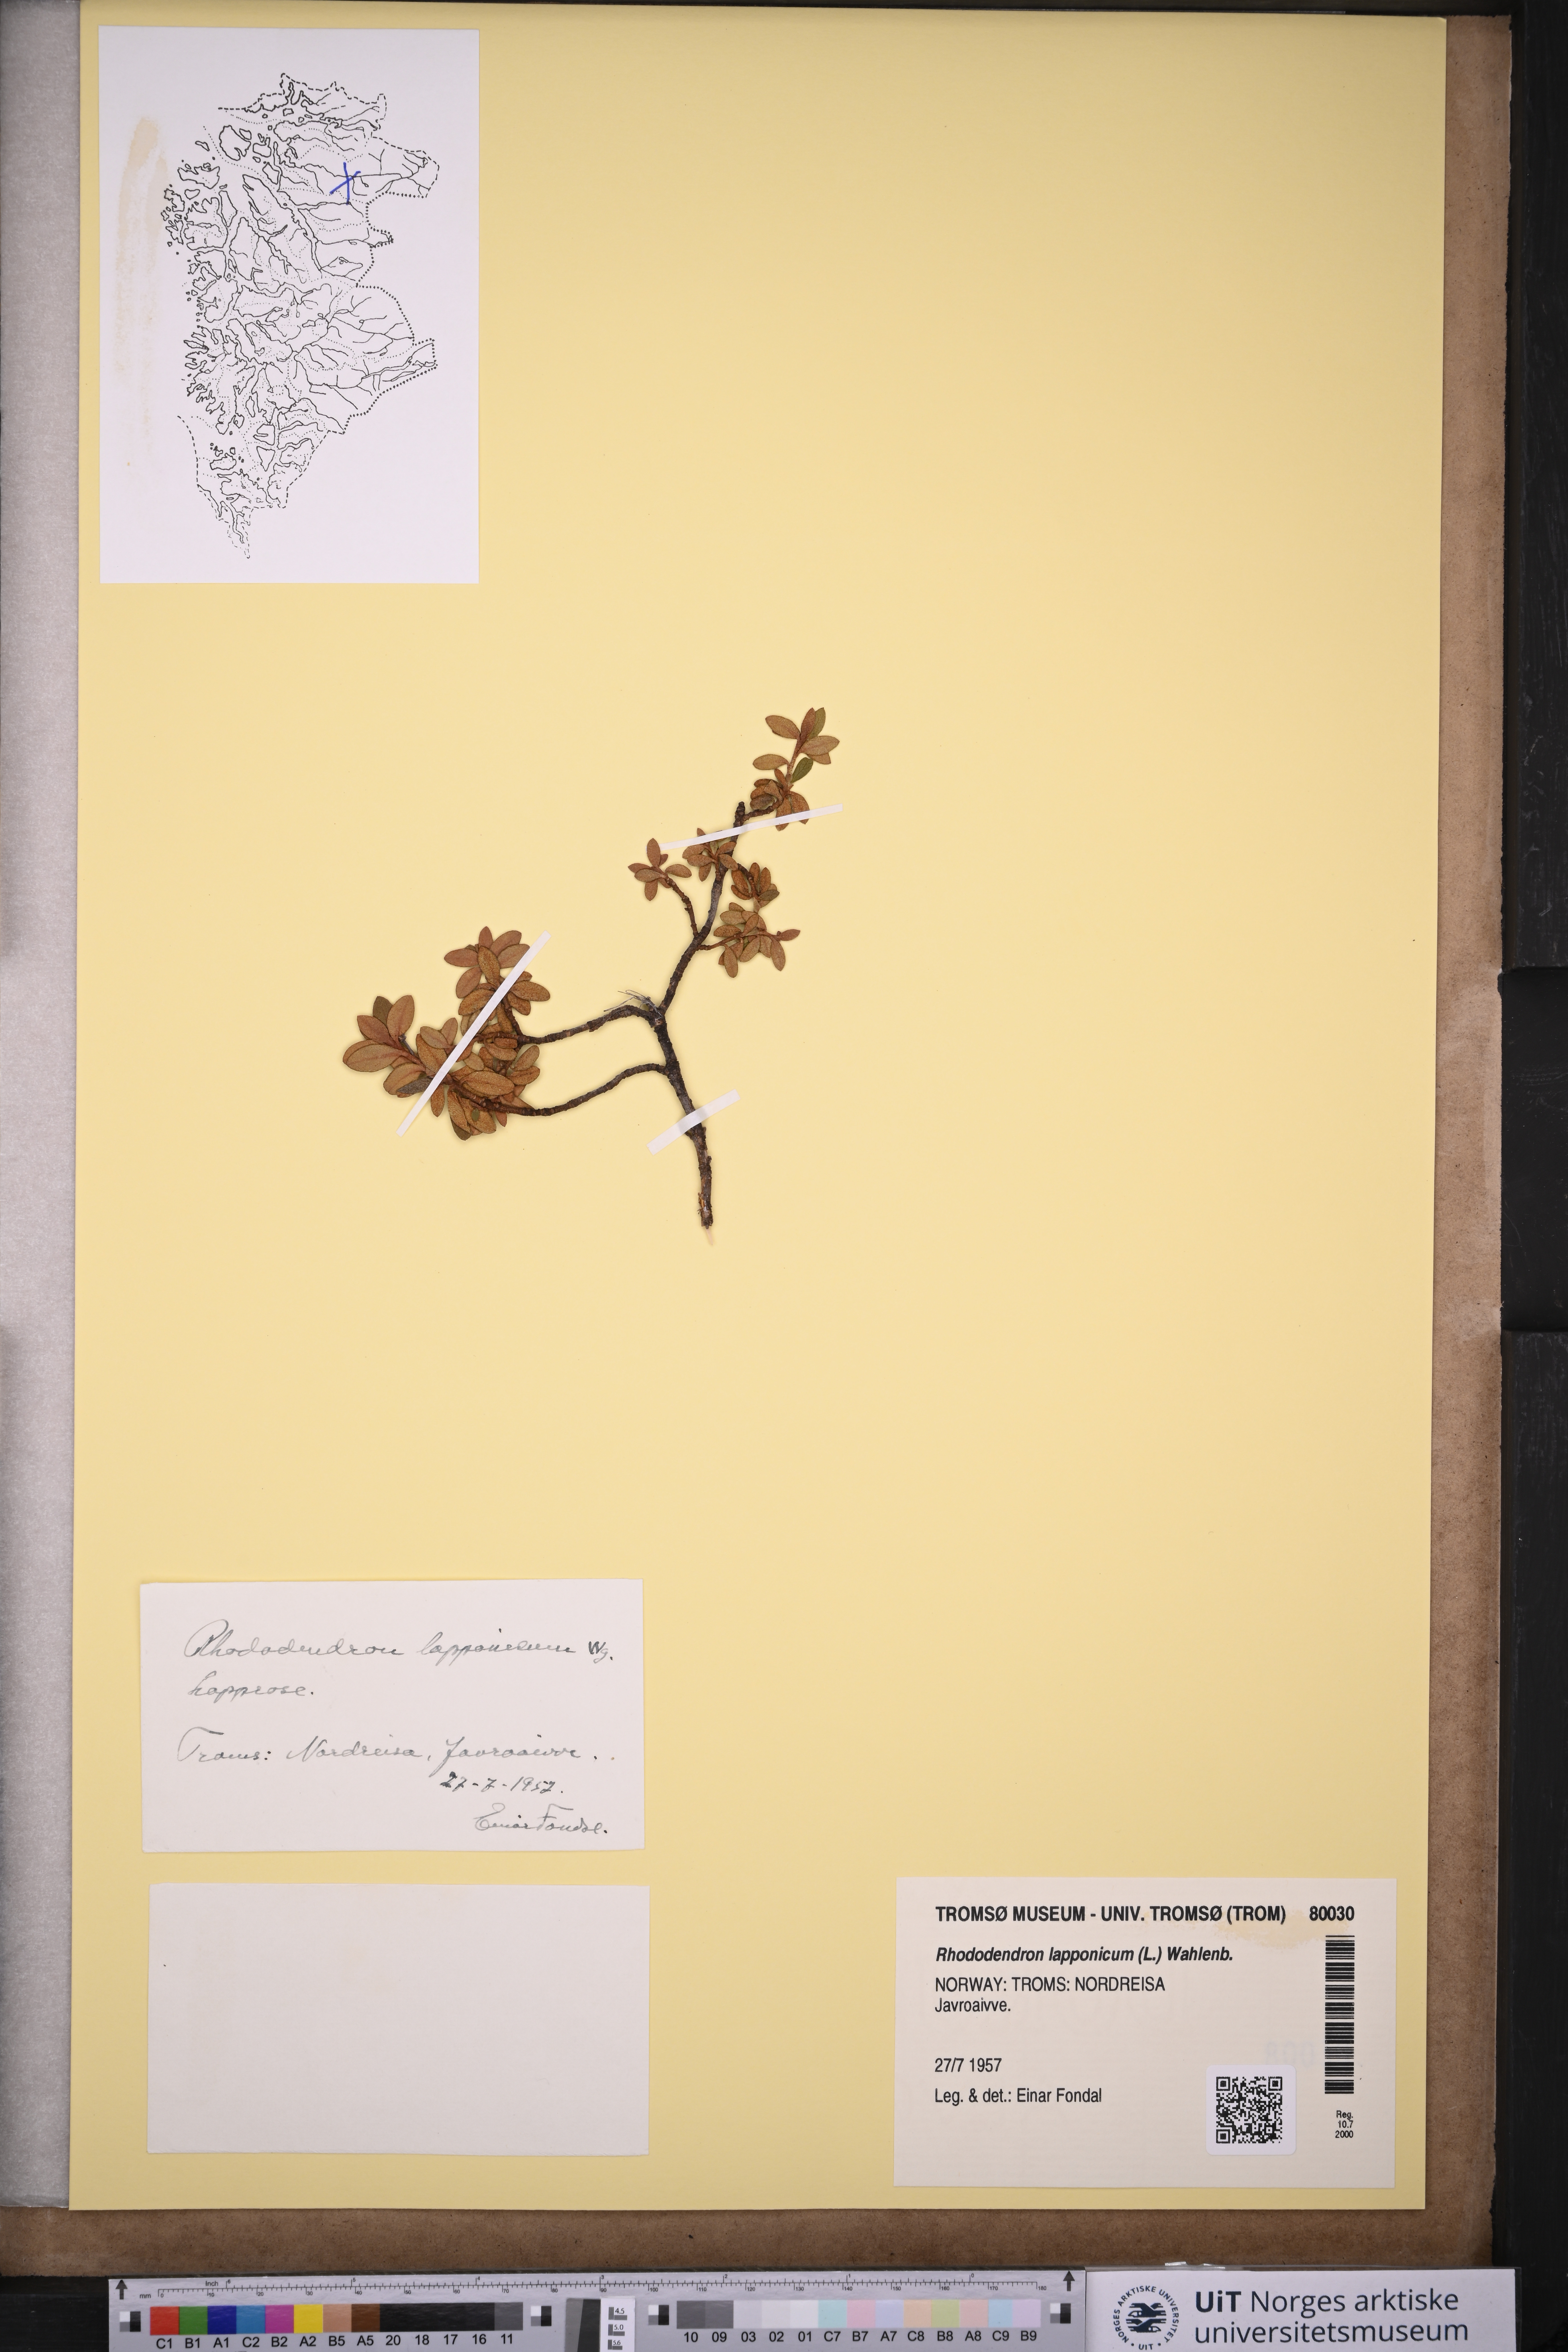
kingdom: Plantae
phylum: Tracheophyta
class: Magnoliopsida
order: Ericales
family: Ericaceae
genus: Rhododendron
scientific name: Rhododendron lapponicum
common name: Lapland rhododendron
